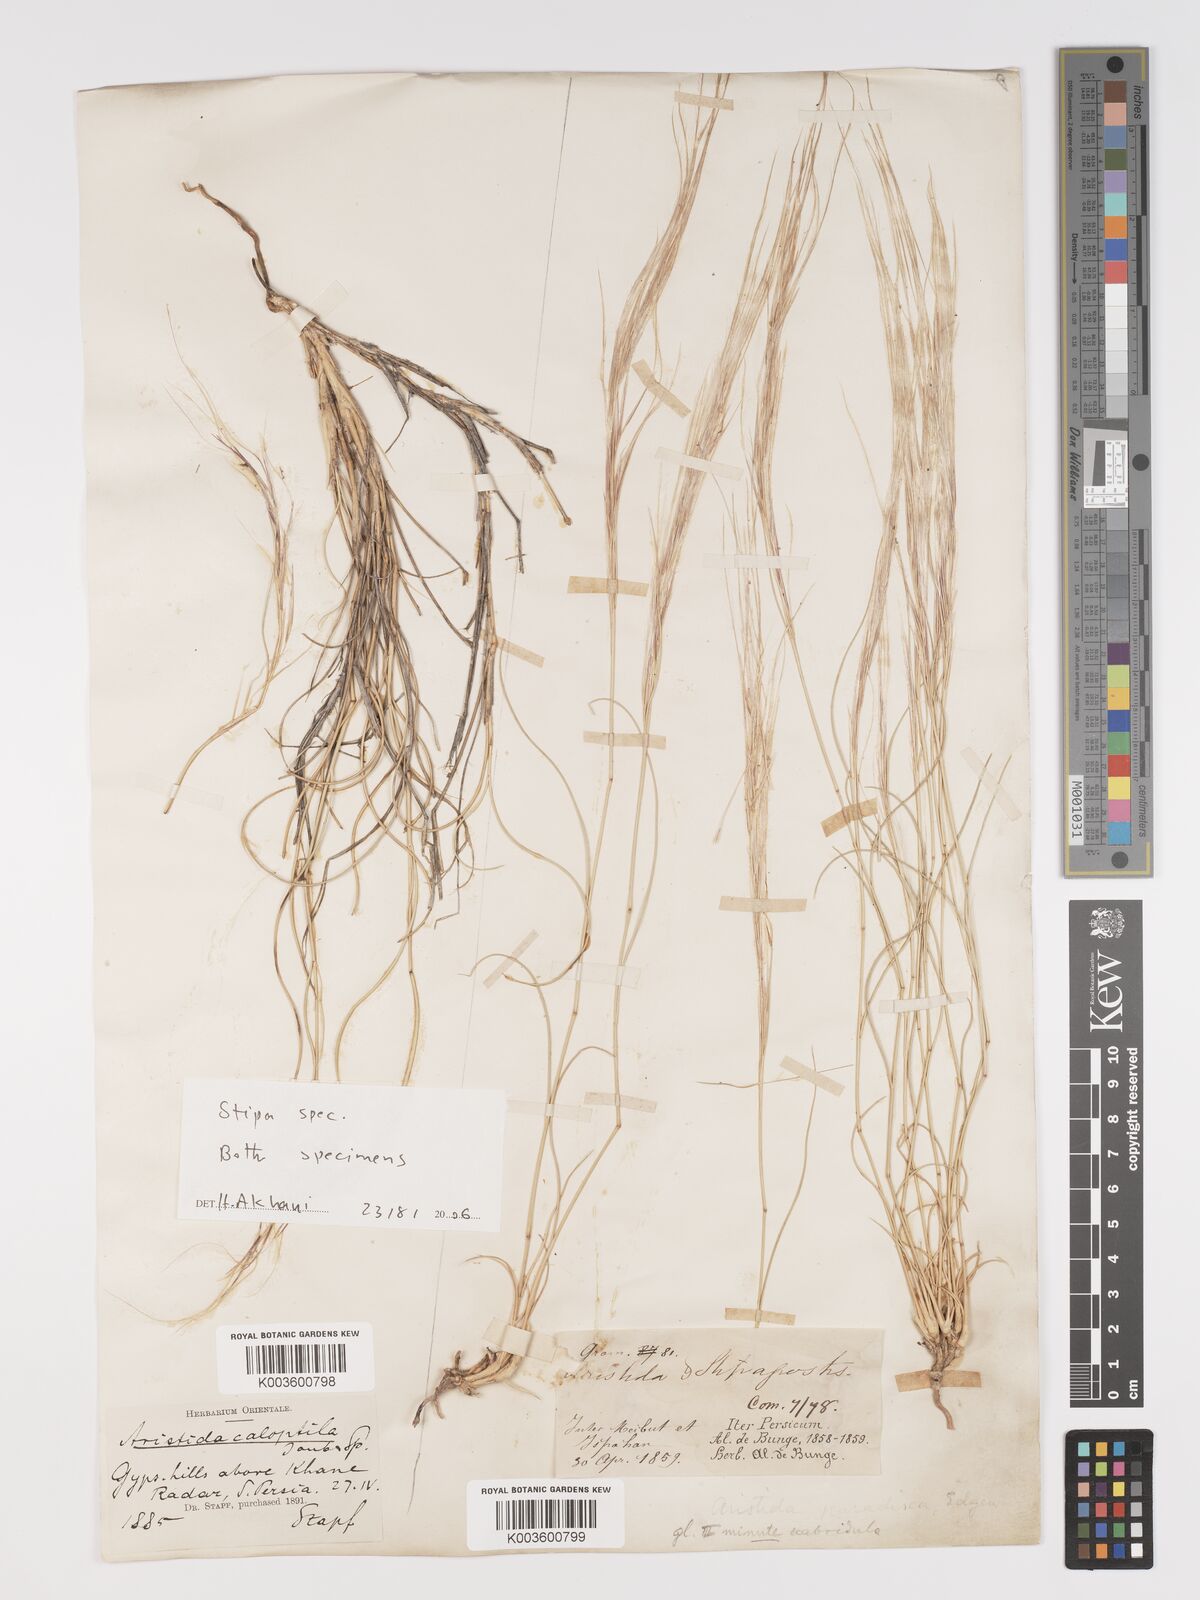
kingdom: Plantae
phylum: Tracheophyta
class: Liliopsida
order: Poales
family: Poaceae
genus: Stipa
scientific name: Stipa
